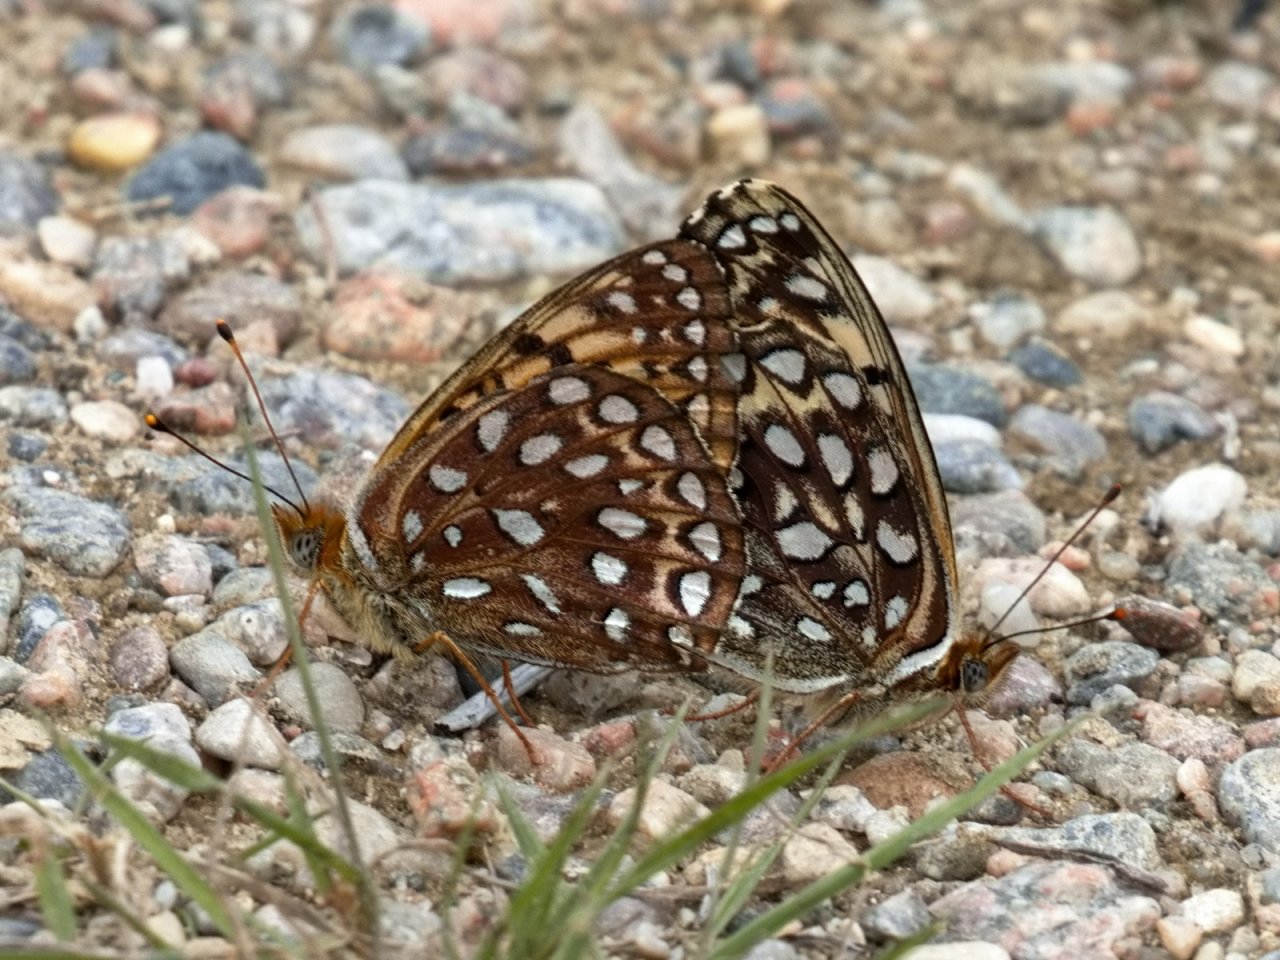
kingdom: Animalia
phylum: Arthropoda
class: Insecta
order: Lepidoptera
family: Nymphalidae
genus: Speyeria
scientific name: Speyeria atlantis
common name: Atlantis Fritillary
